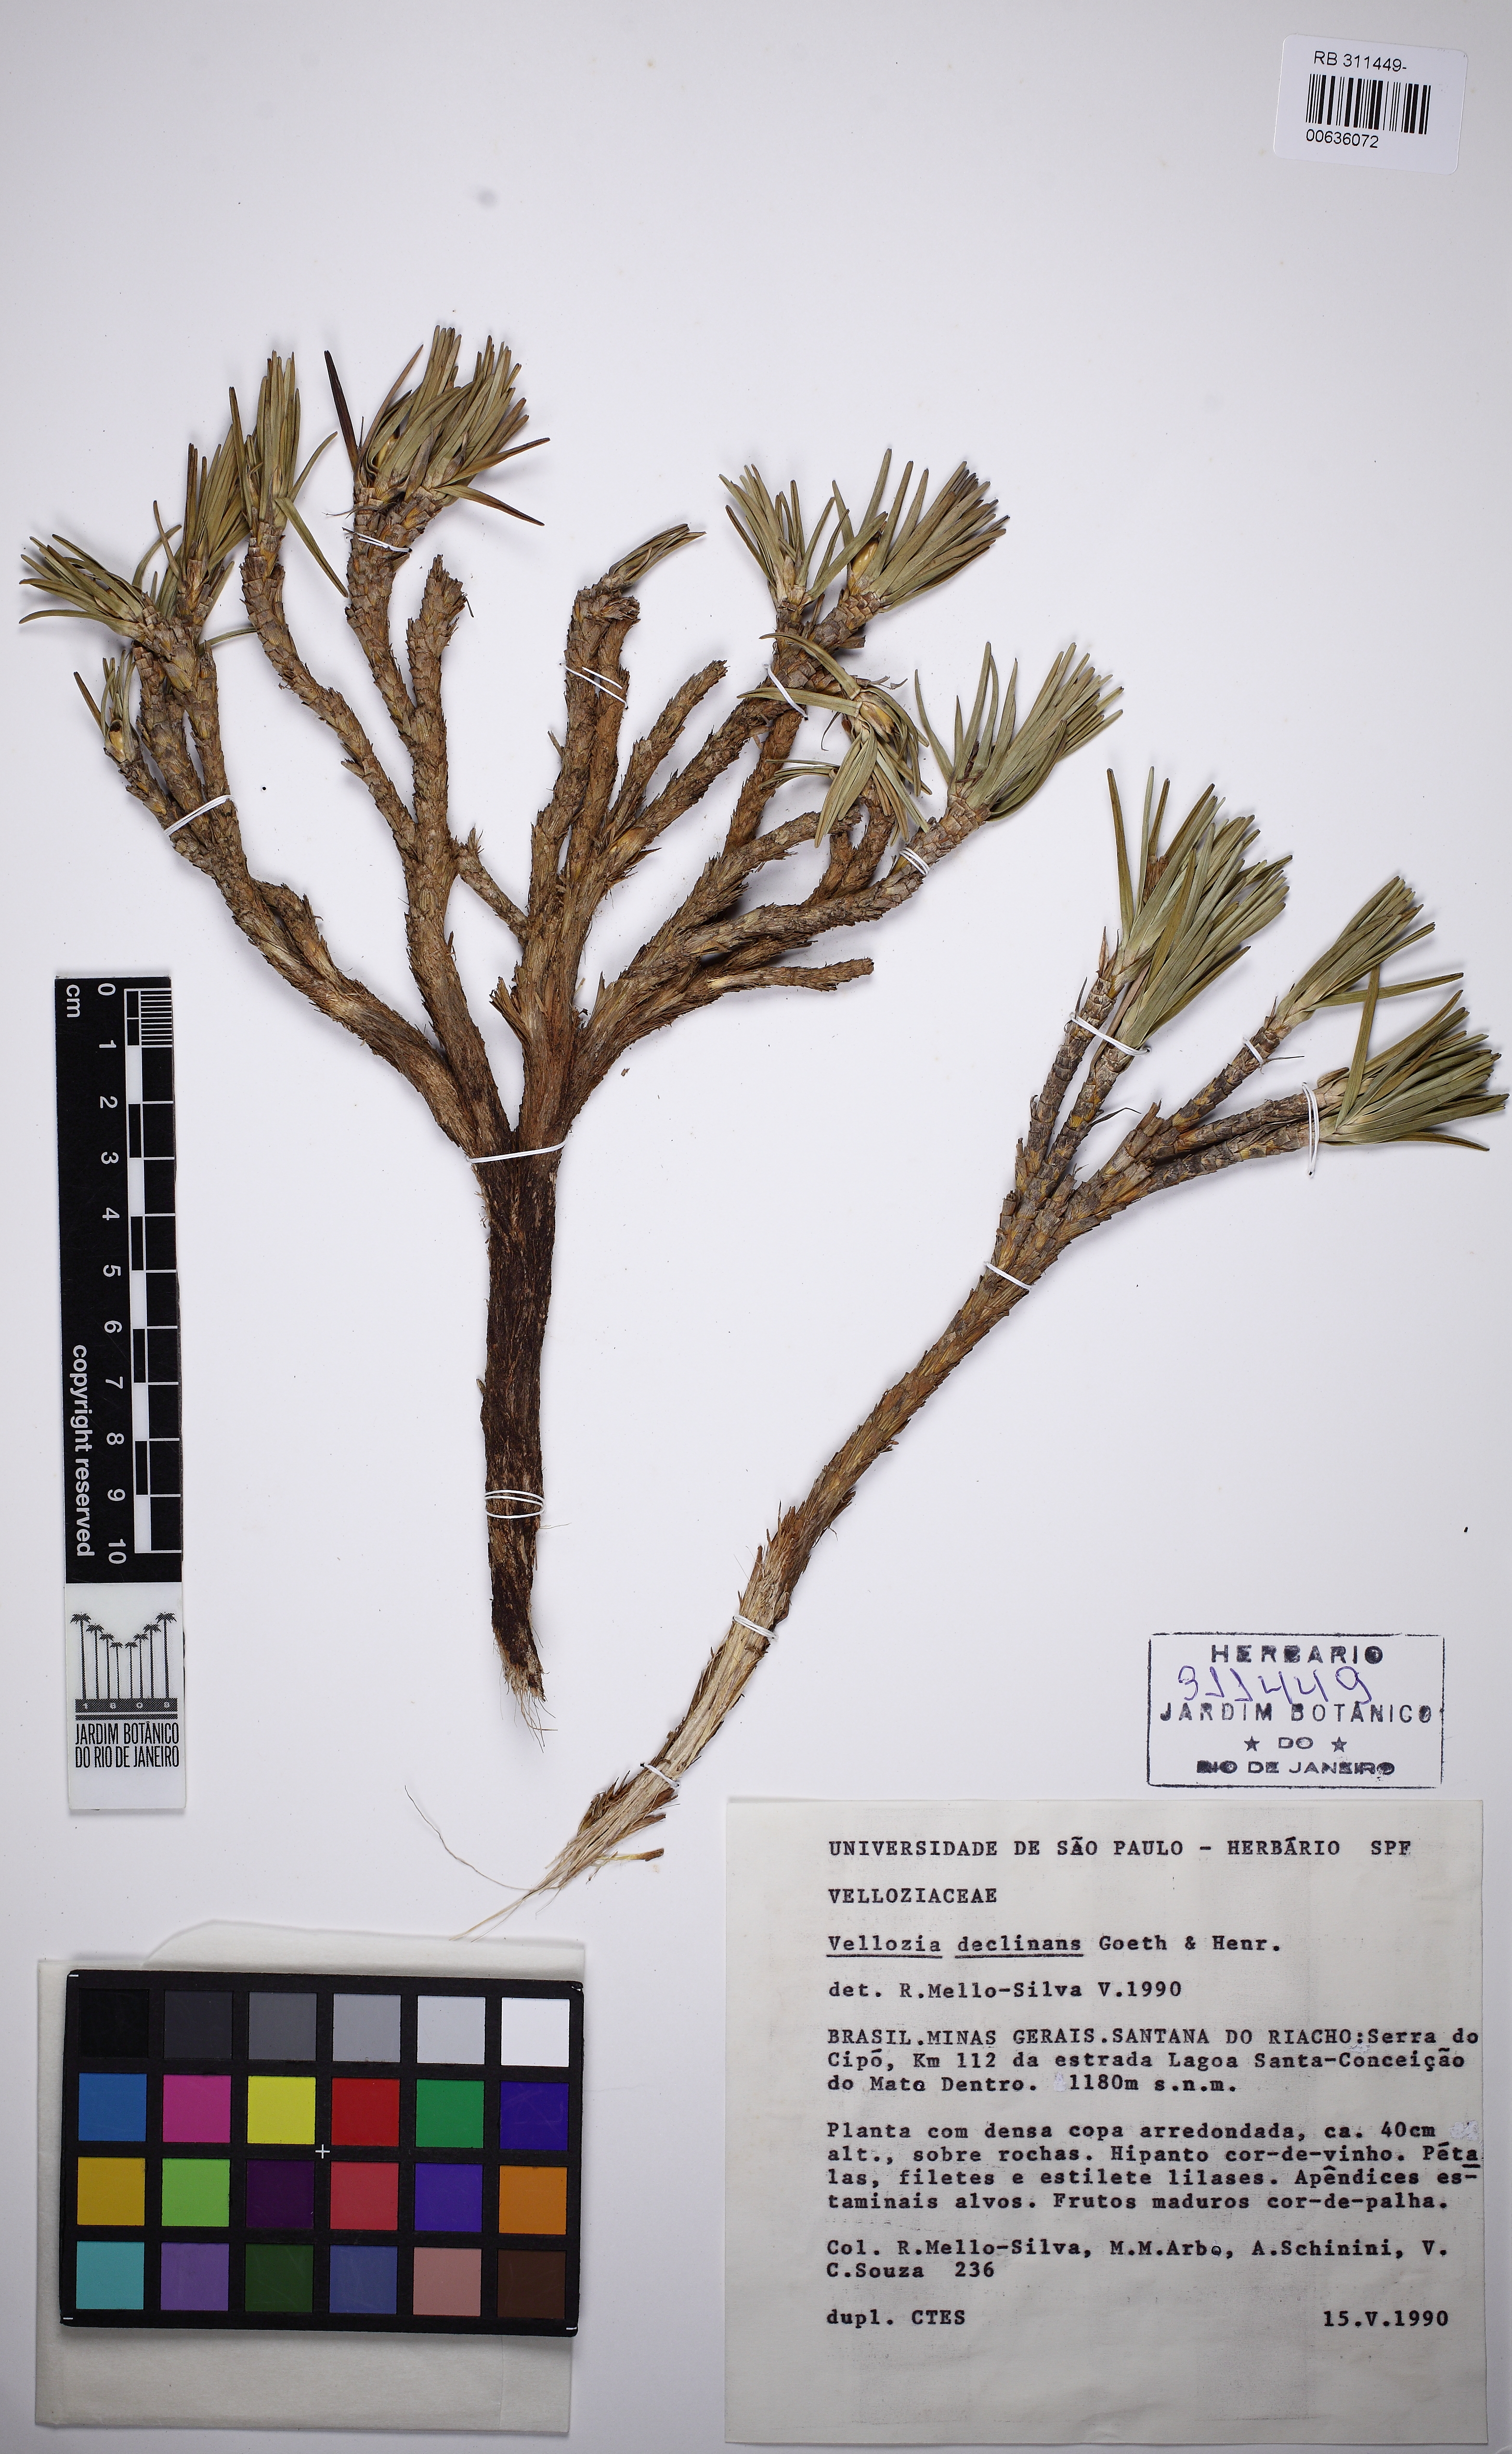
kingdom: Plantae
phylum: Tracheophyta
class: Liliopsida
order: Pandanales
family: Velloziaceae
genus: Vellozia
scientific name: Vellozia declinans
